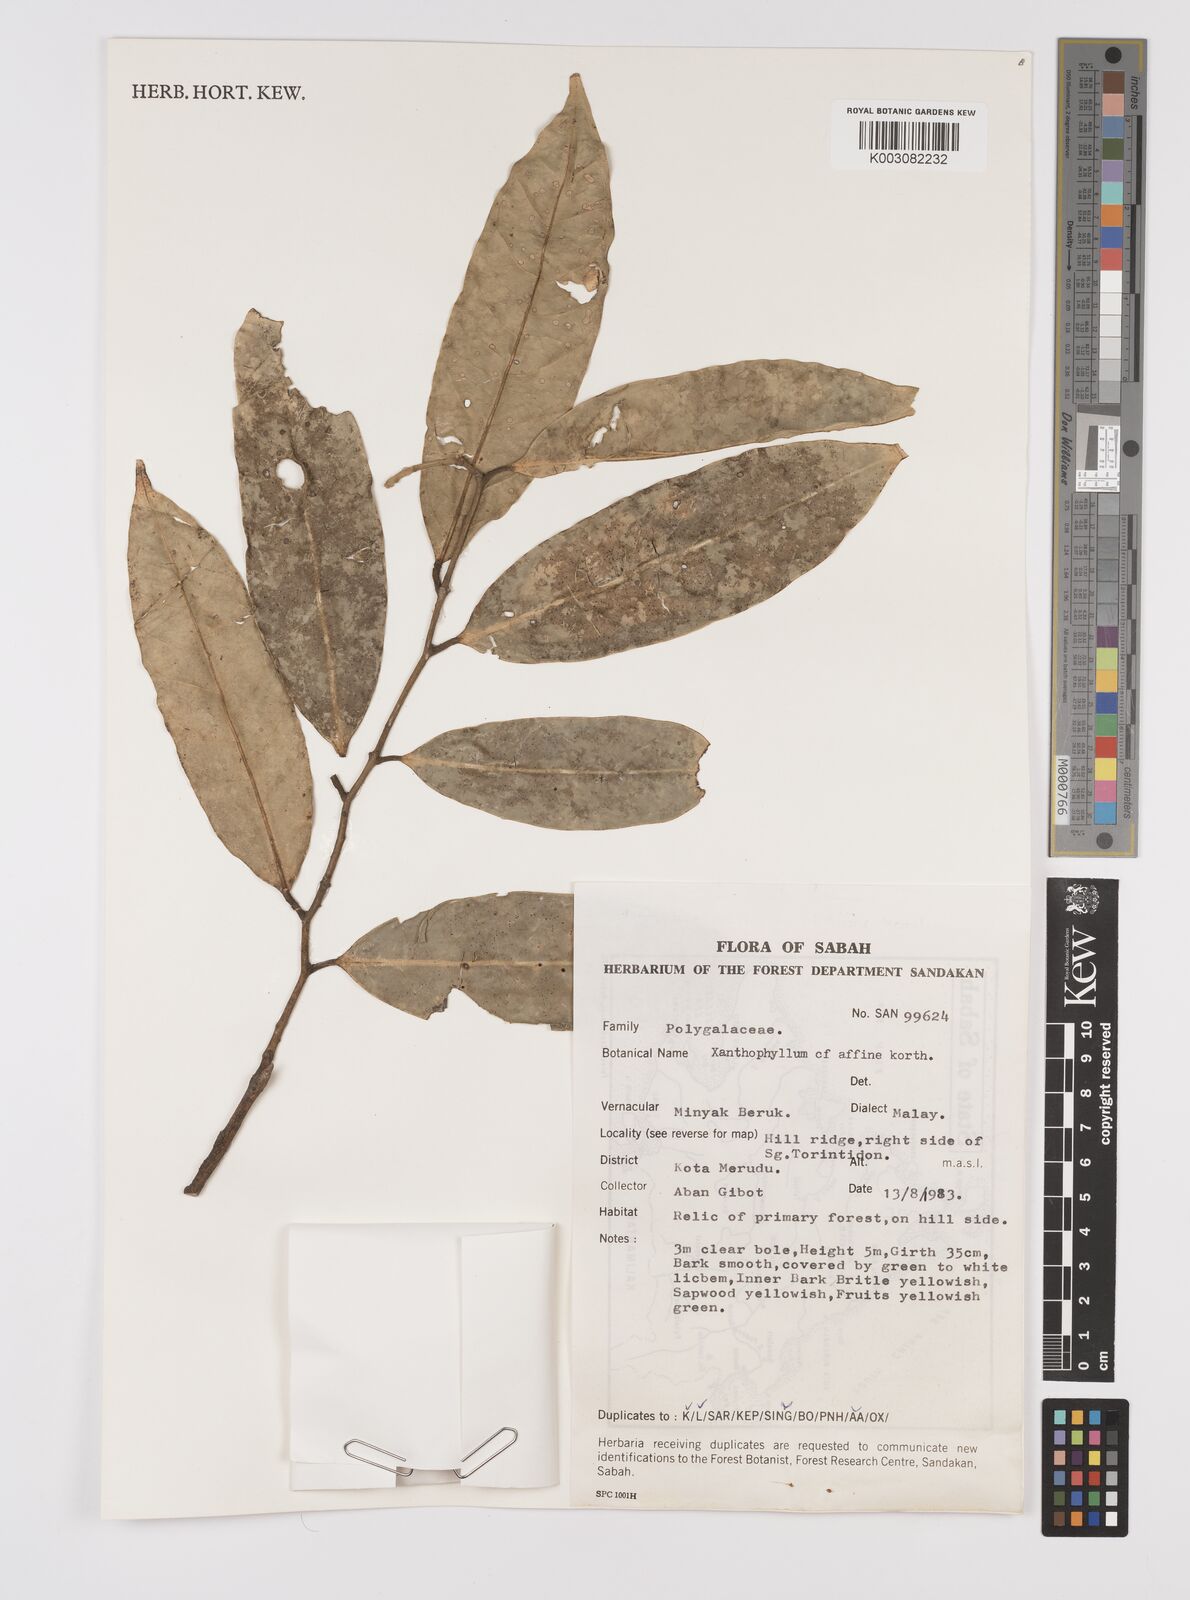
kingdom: Plantae
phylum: Tracheophyta
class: Magnoliopsida
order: Fabales
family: Polygalaceae
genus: Xanthophyllum
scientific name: Xanthophyllum flavescens
